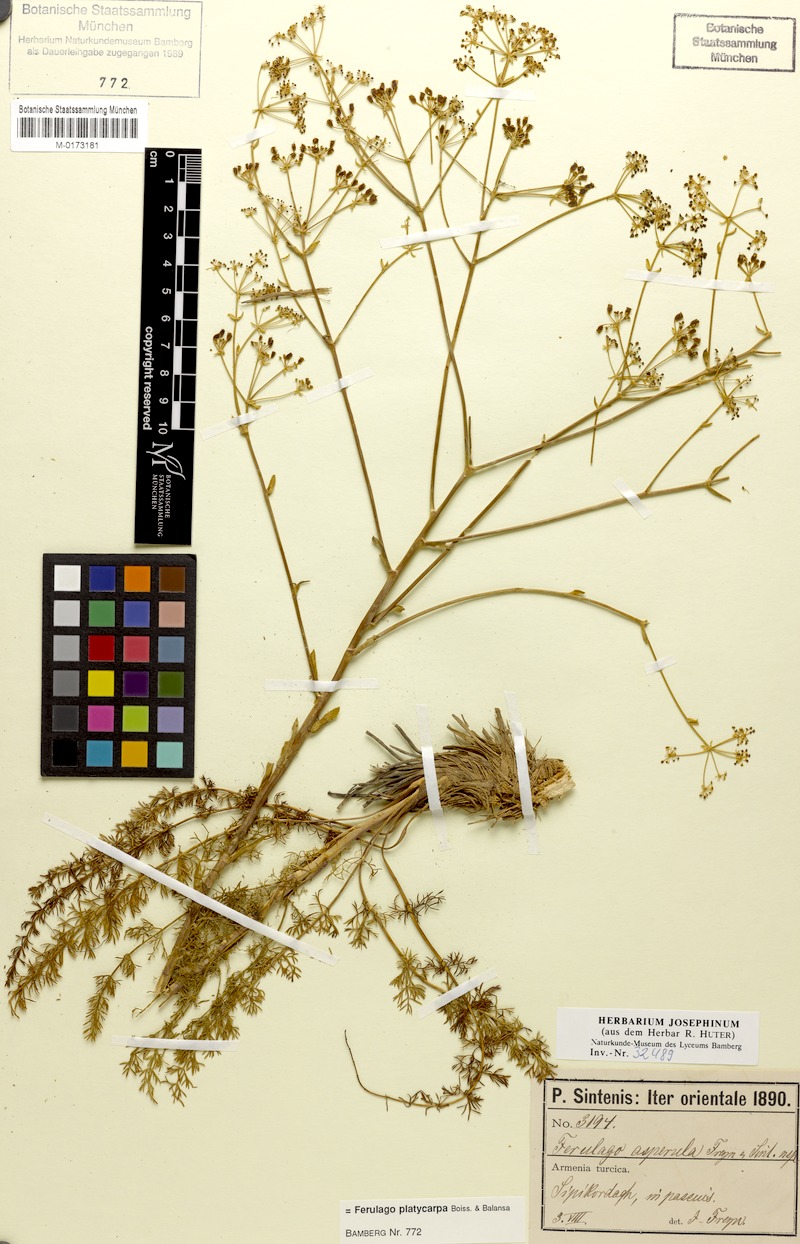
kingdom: Plantae
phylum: Tracheophyta
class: Magnoliopsida
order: Apiales
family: Apiaceae
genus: Ferulago
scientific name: Ferulago platycarpa
